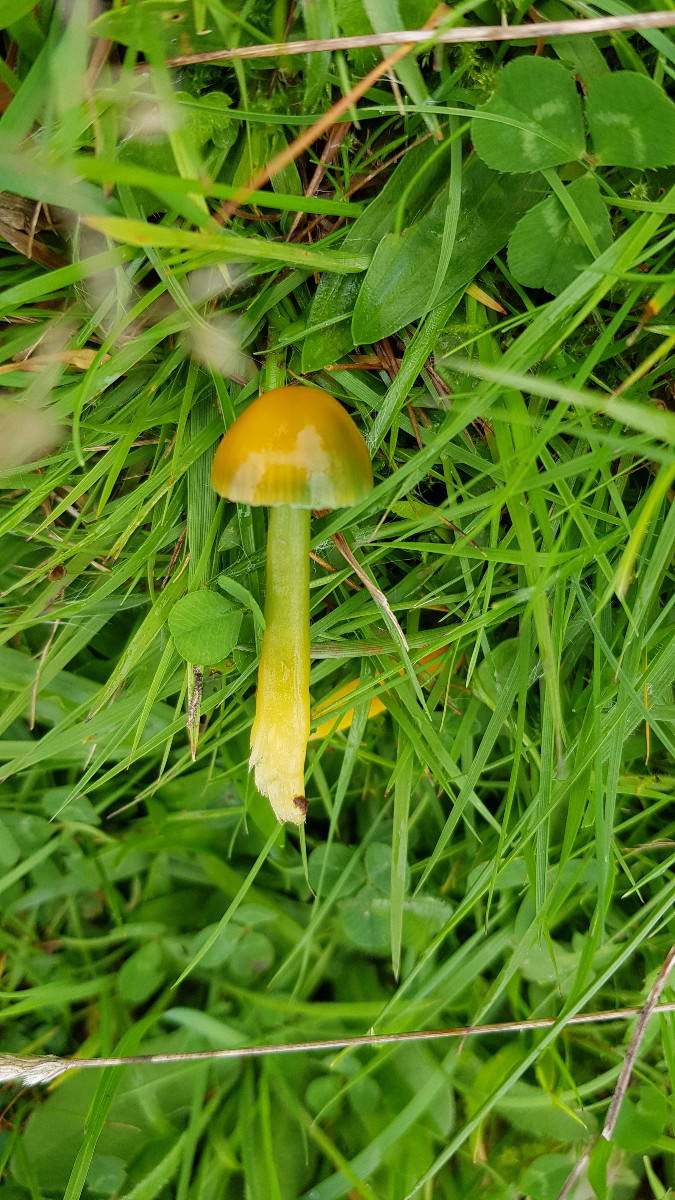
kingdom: Fungi
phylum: Basidiomycota
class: Agaricomycetes
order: Agaricales
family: Hygrophoraceae
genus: Gliophorus
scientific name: Gliophorus psittacinus
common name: papegøje-vokshat
